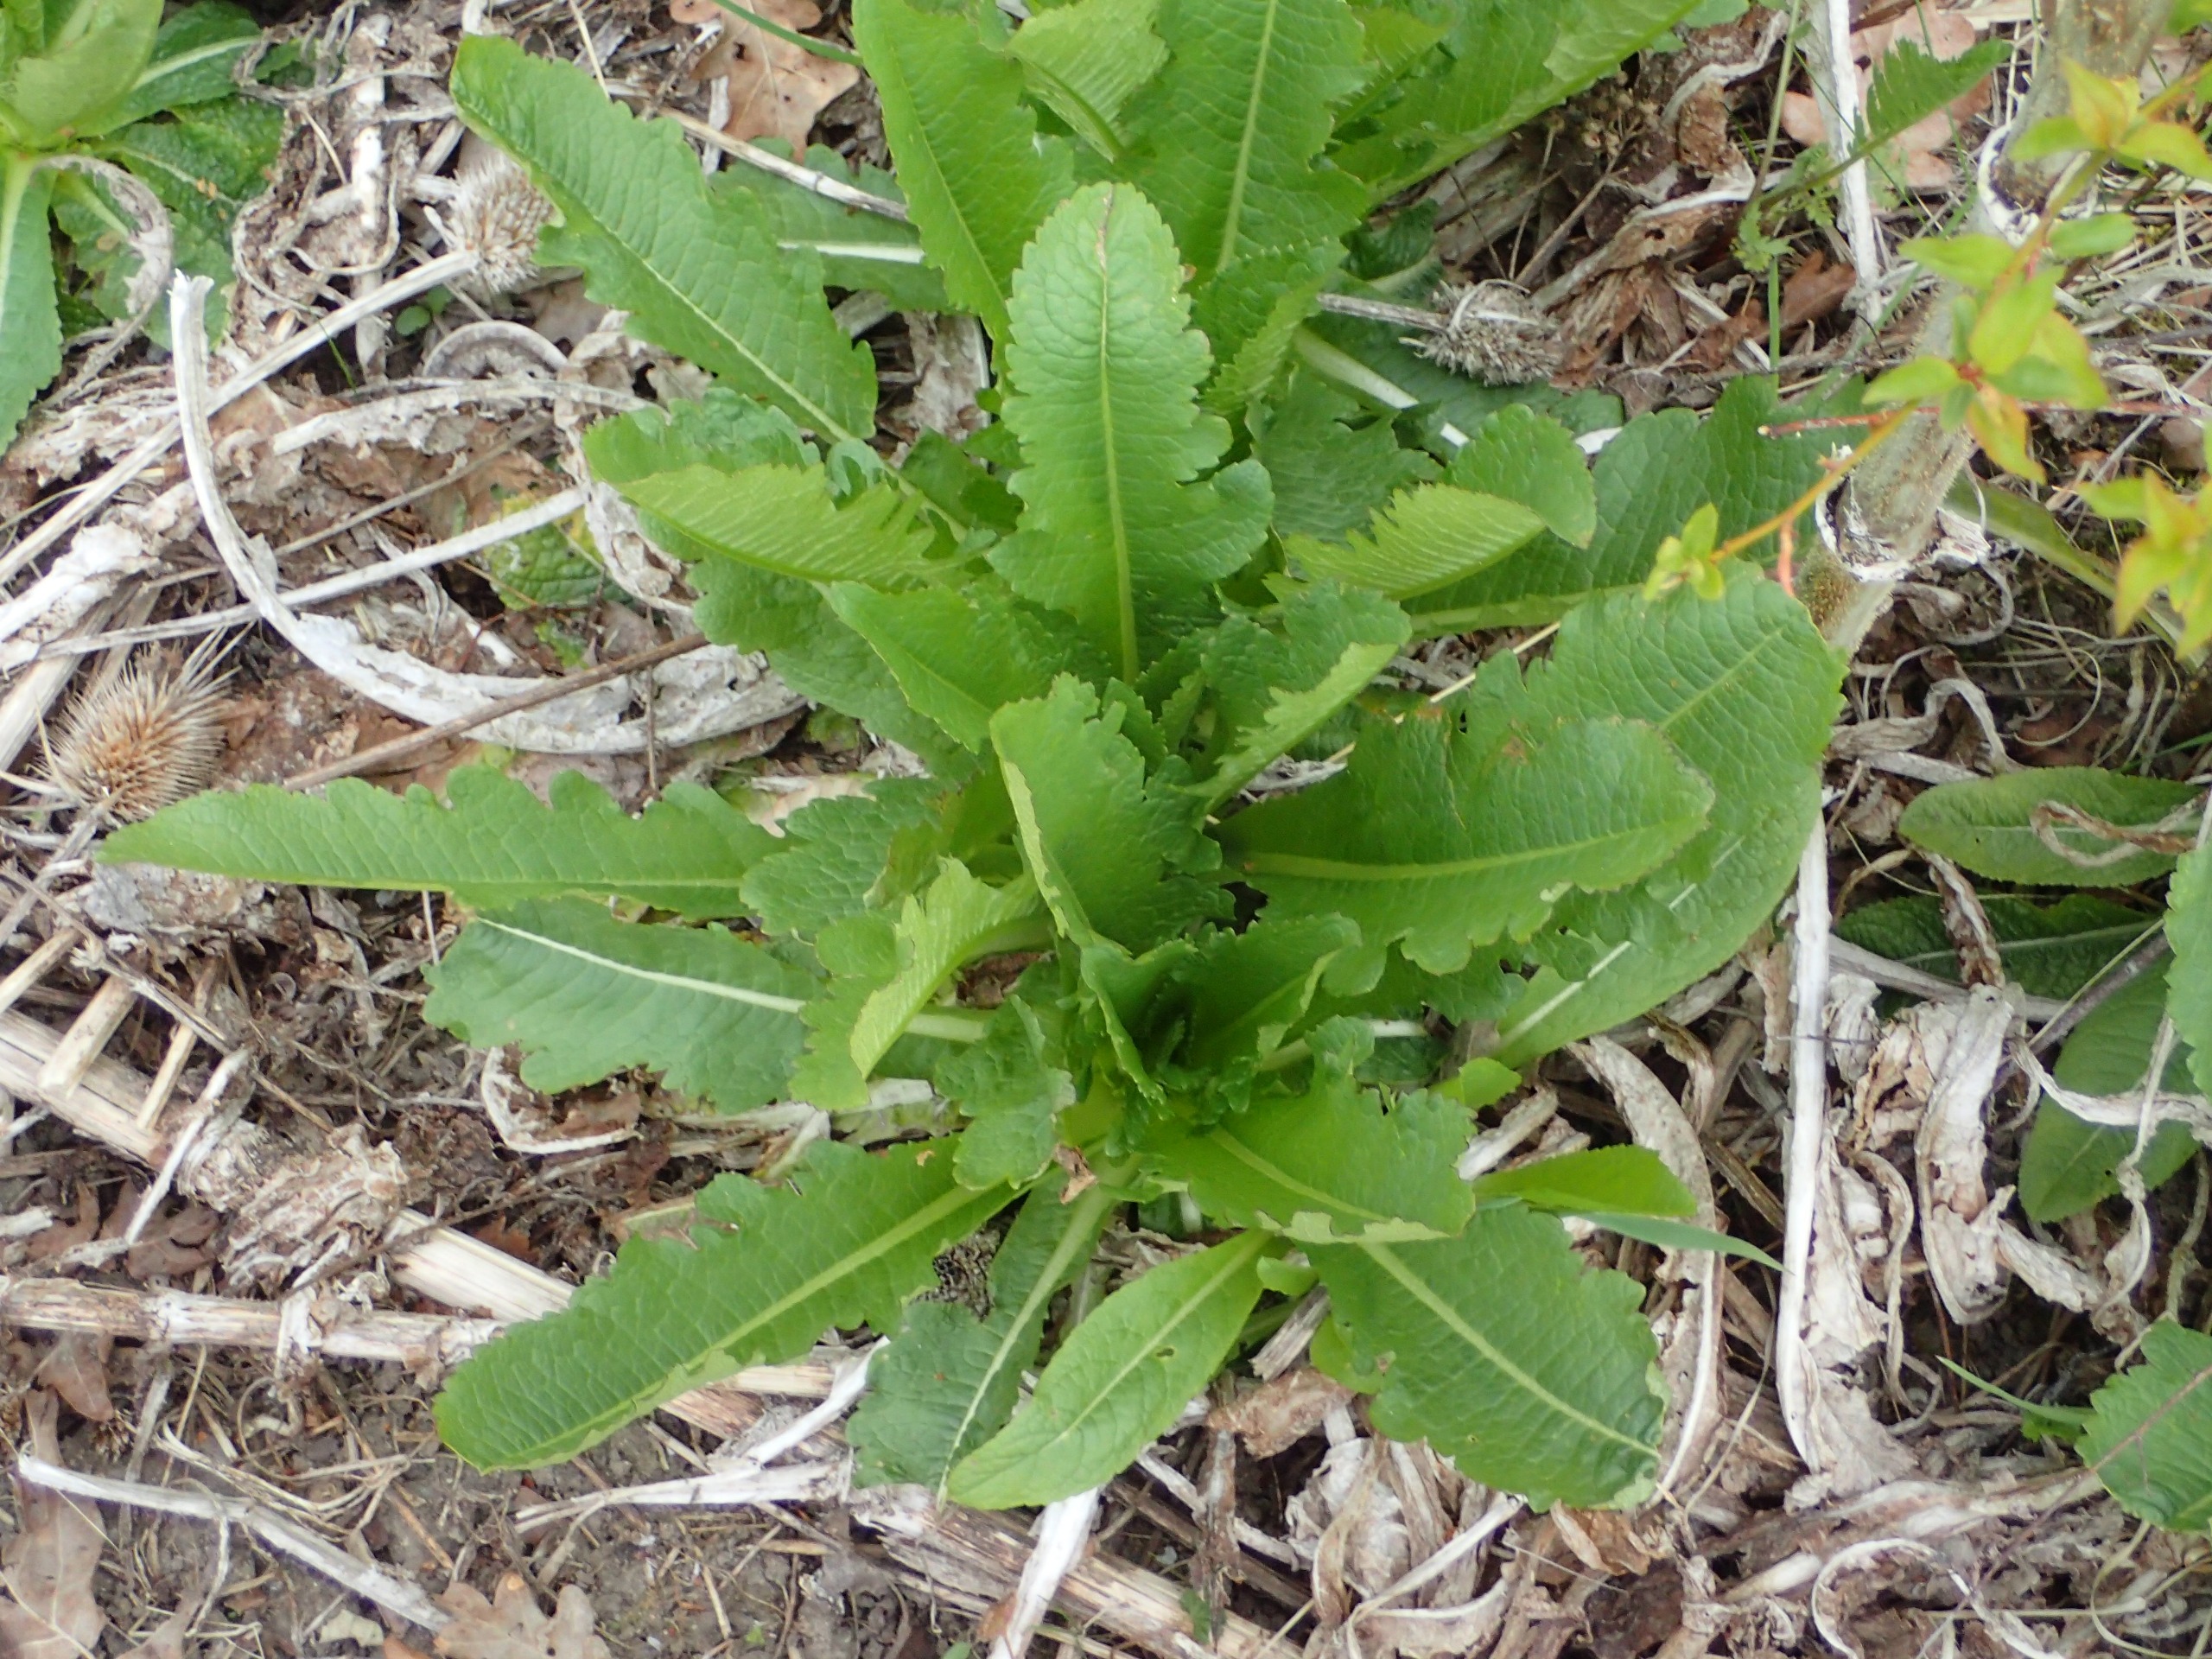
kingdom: Plantae
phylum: Tracheophyta
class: Magnoliopsida
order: Dipsacales
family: Caprifoliaceae
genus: Dipsacus
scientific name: Dipsacus laciniatus
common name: Fliget kartebolle
